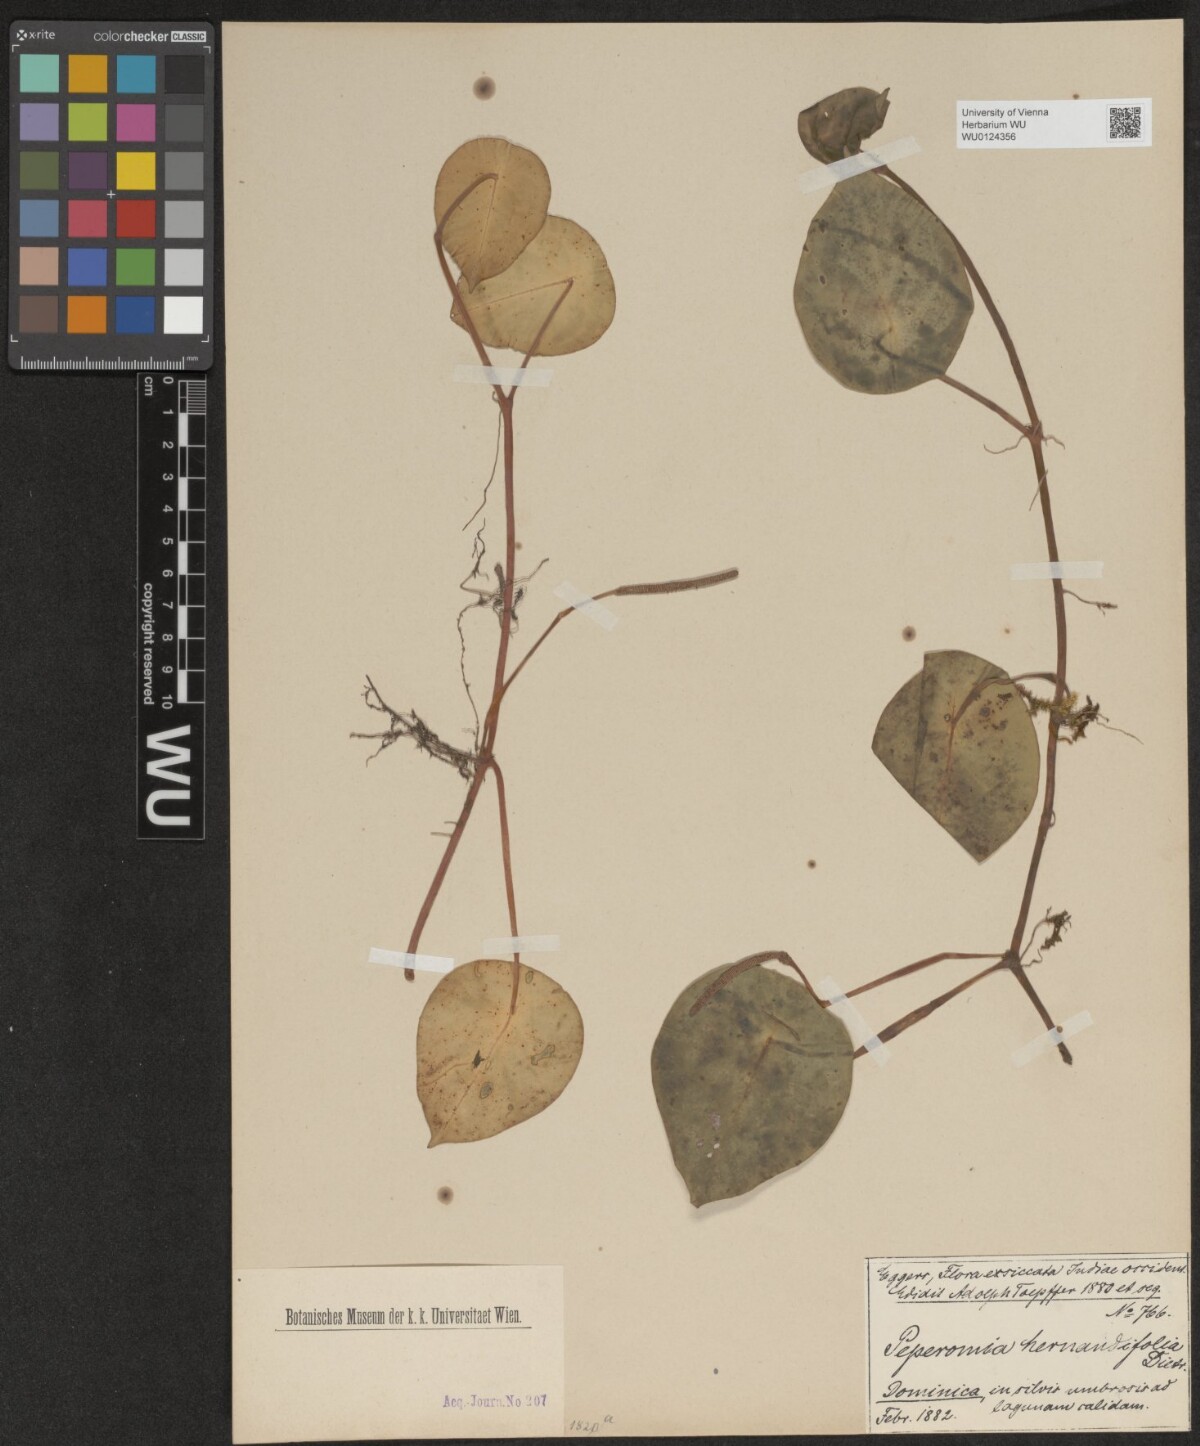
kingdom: Plantae
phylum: Tracheophyta
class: Magnoliopsida
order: Piperales
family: Piperaceae
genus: Peperomia
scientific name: Peperomia hernandiifolia
